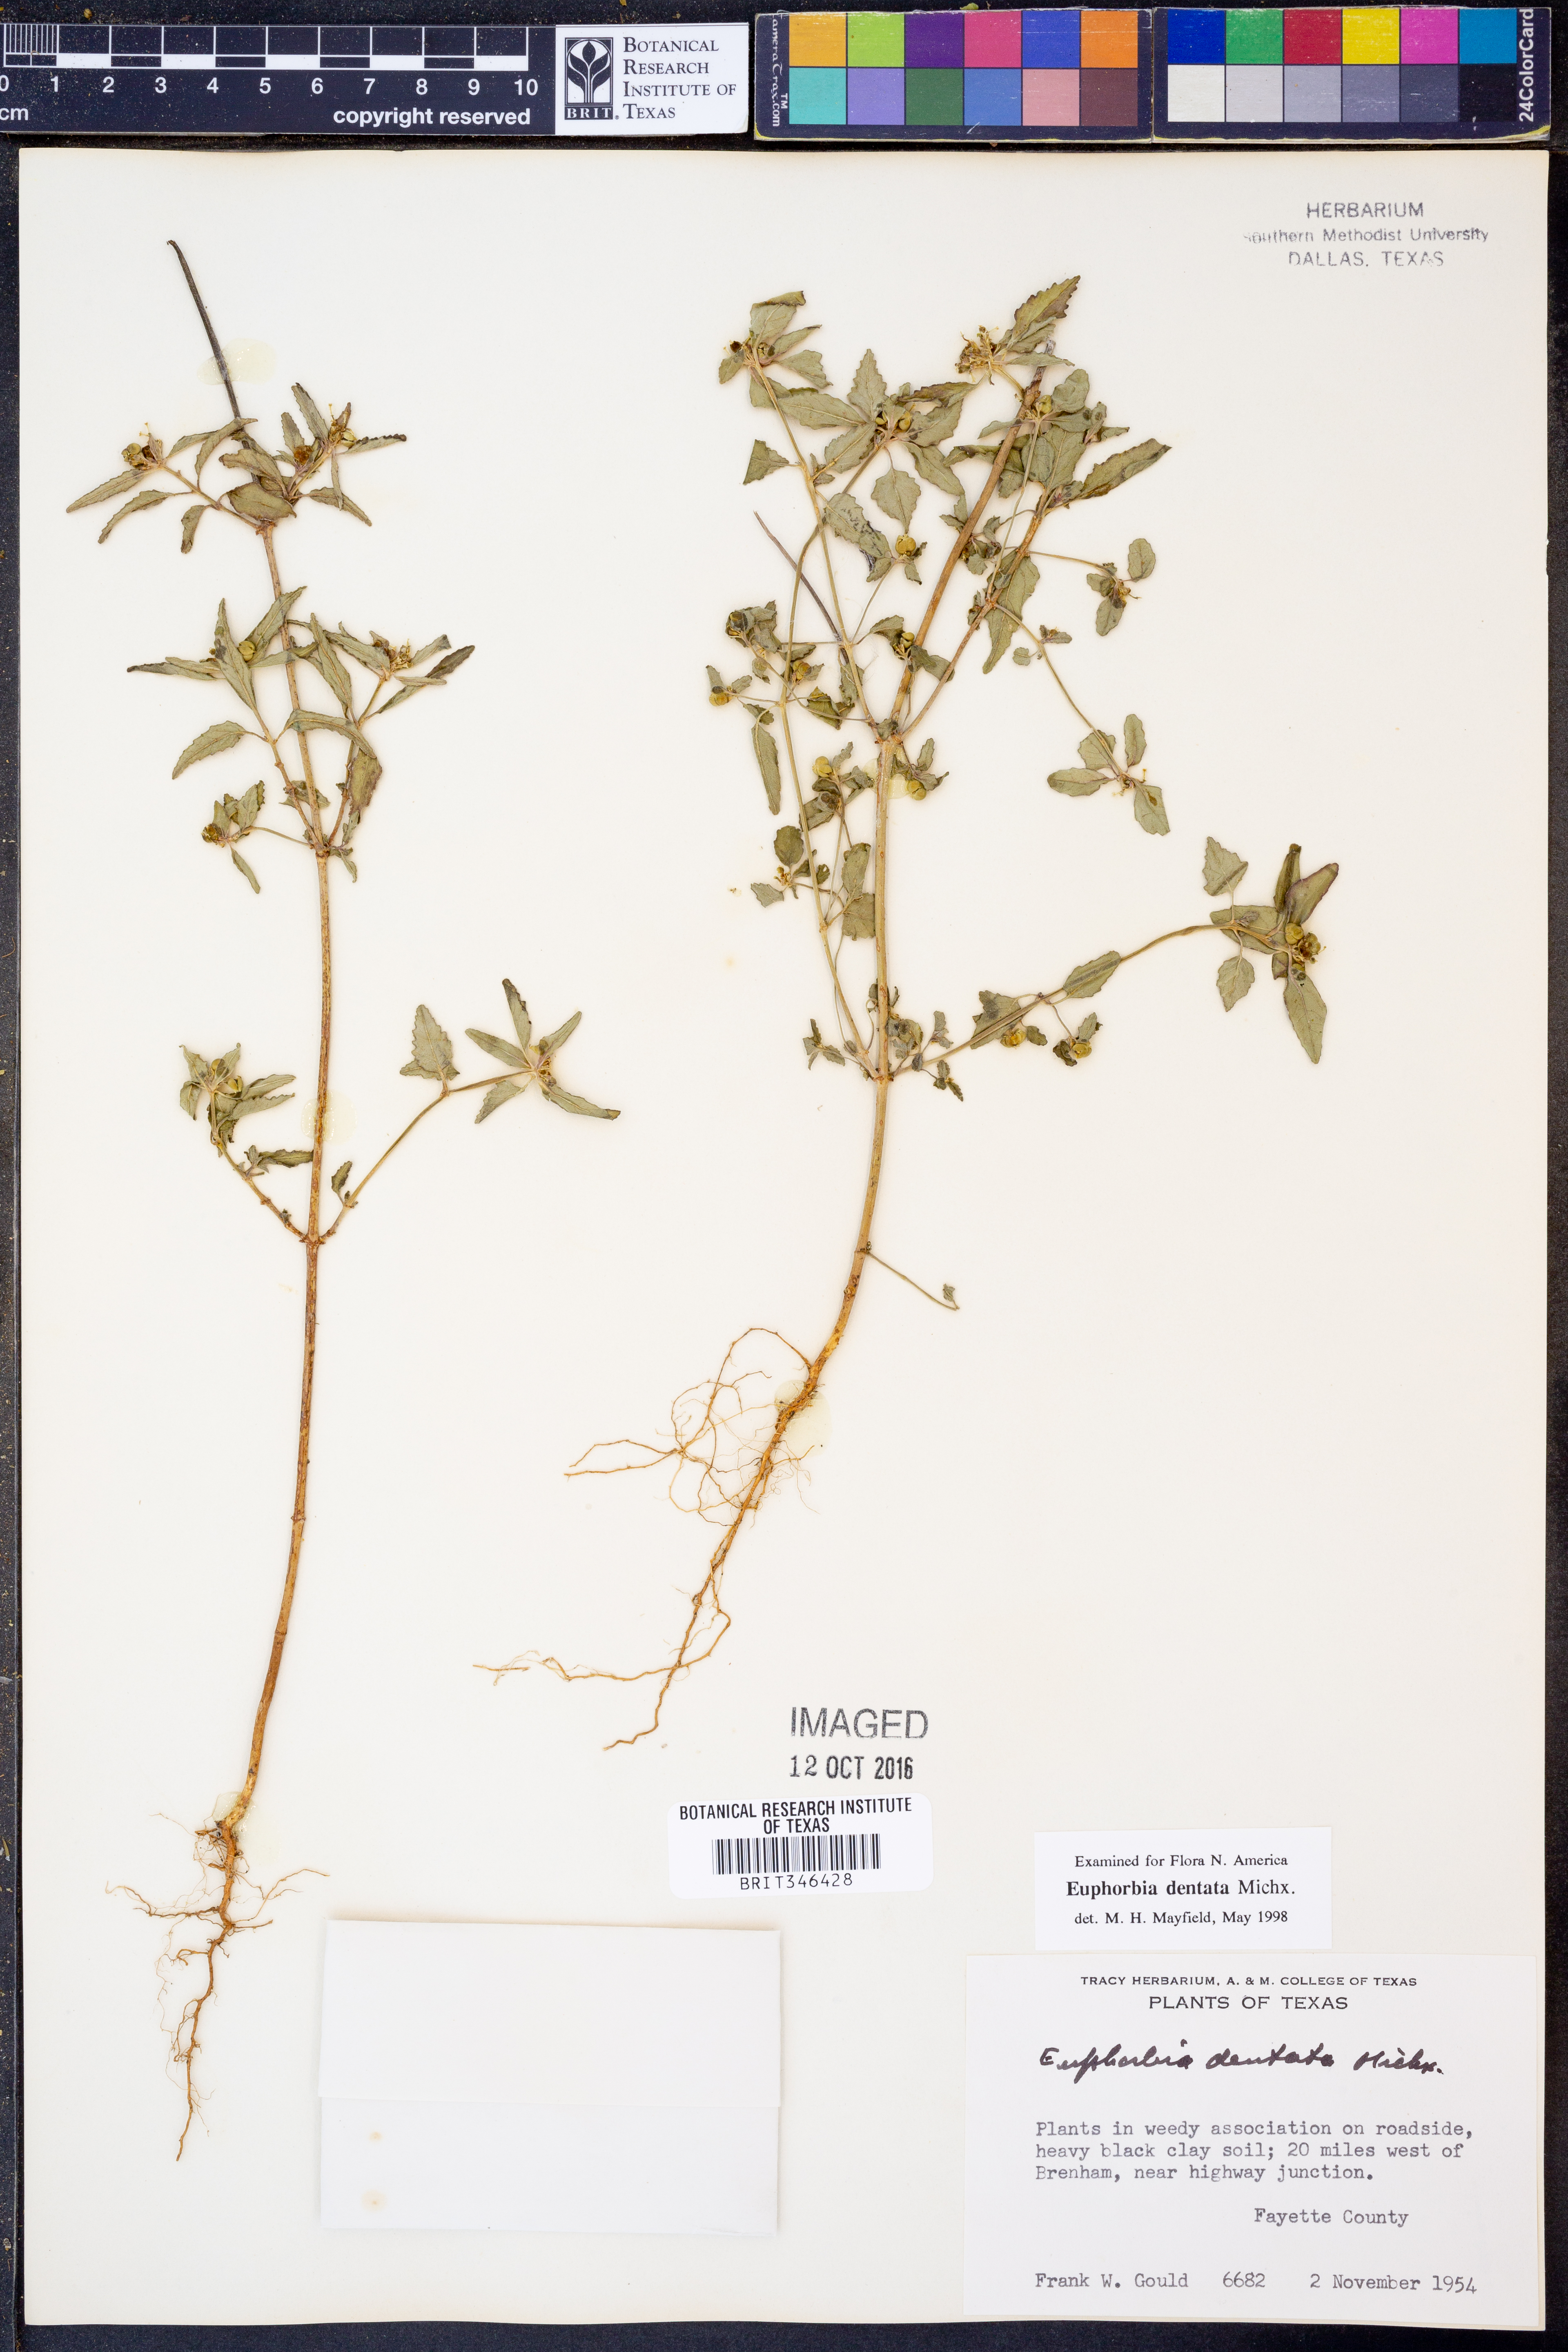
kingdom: Plantae
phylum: Tracheophyta
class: Magnoliopsida
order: Malpighiales
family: Euphorbiaceae
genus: Euphorbia
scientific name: Euphorbia dentata
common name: Dentate spurge
